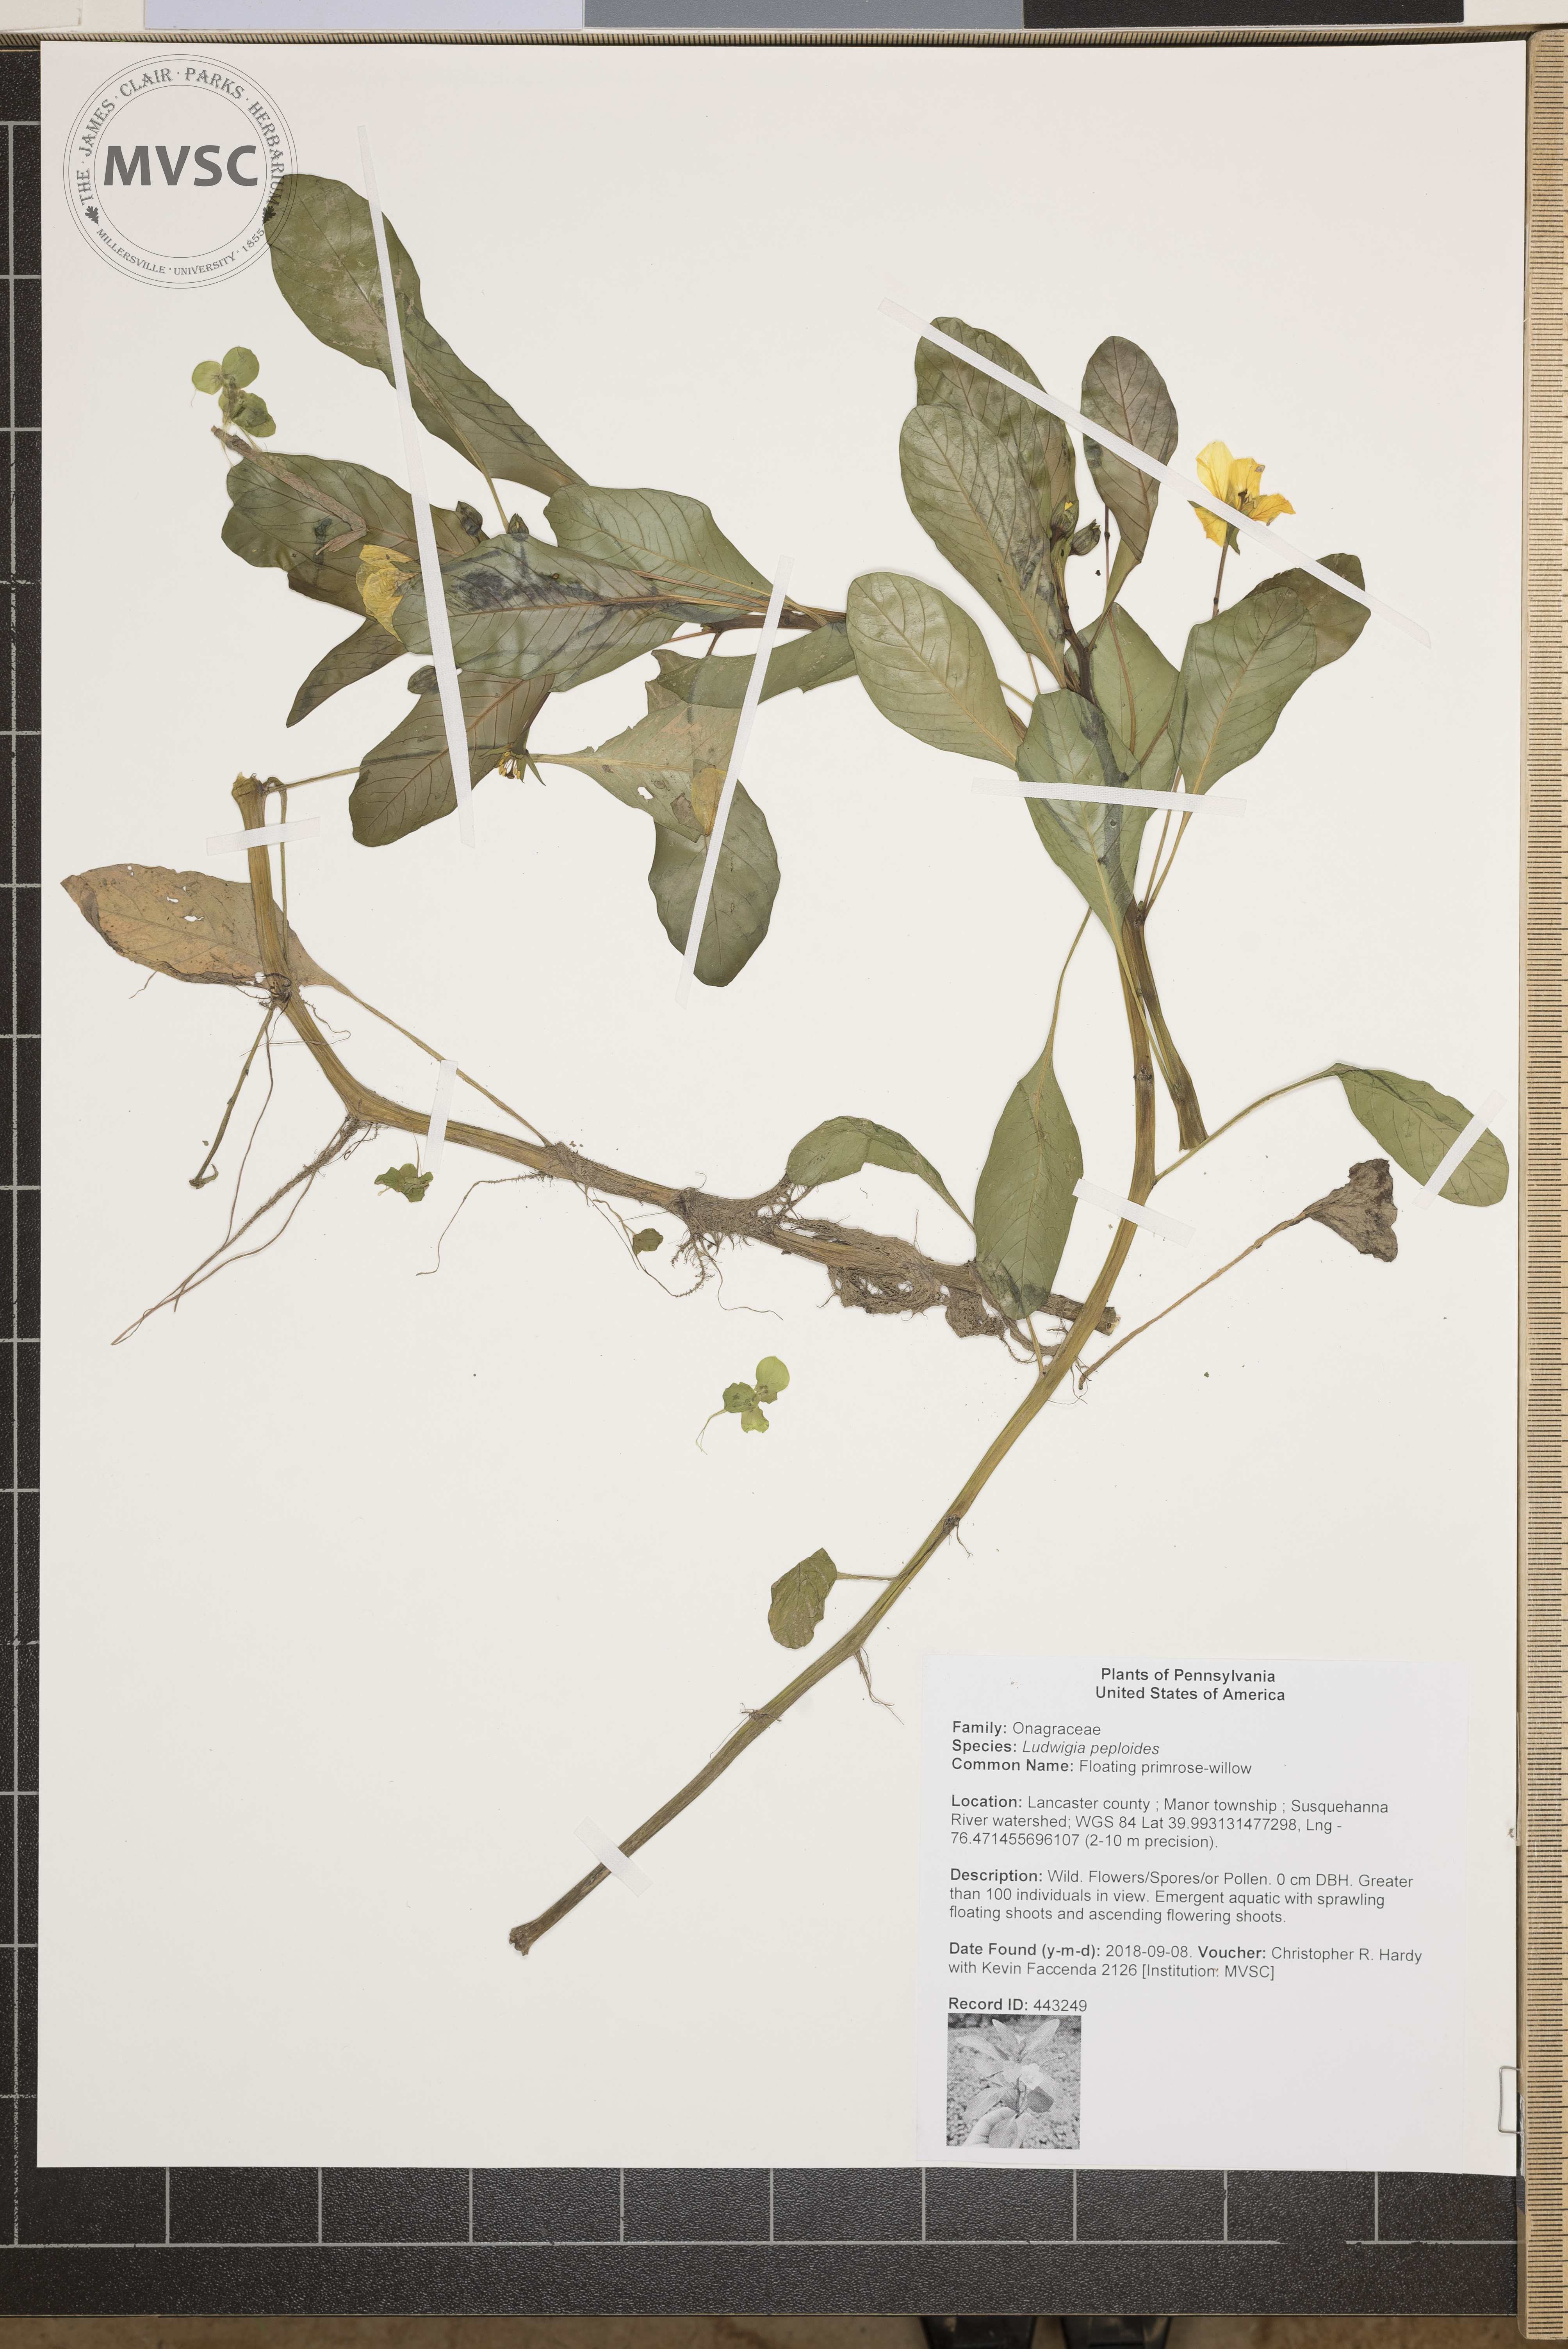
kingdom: Plantae
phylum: Tracheophyta
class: Magnoliopsida
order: Myrtales
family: Onagraceae
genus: Ludwigia
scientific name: Ludwigia peploides
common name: Floating primrose-willow
